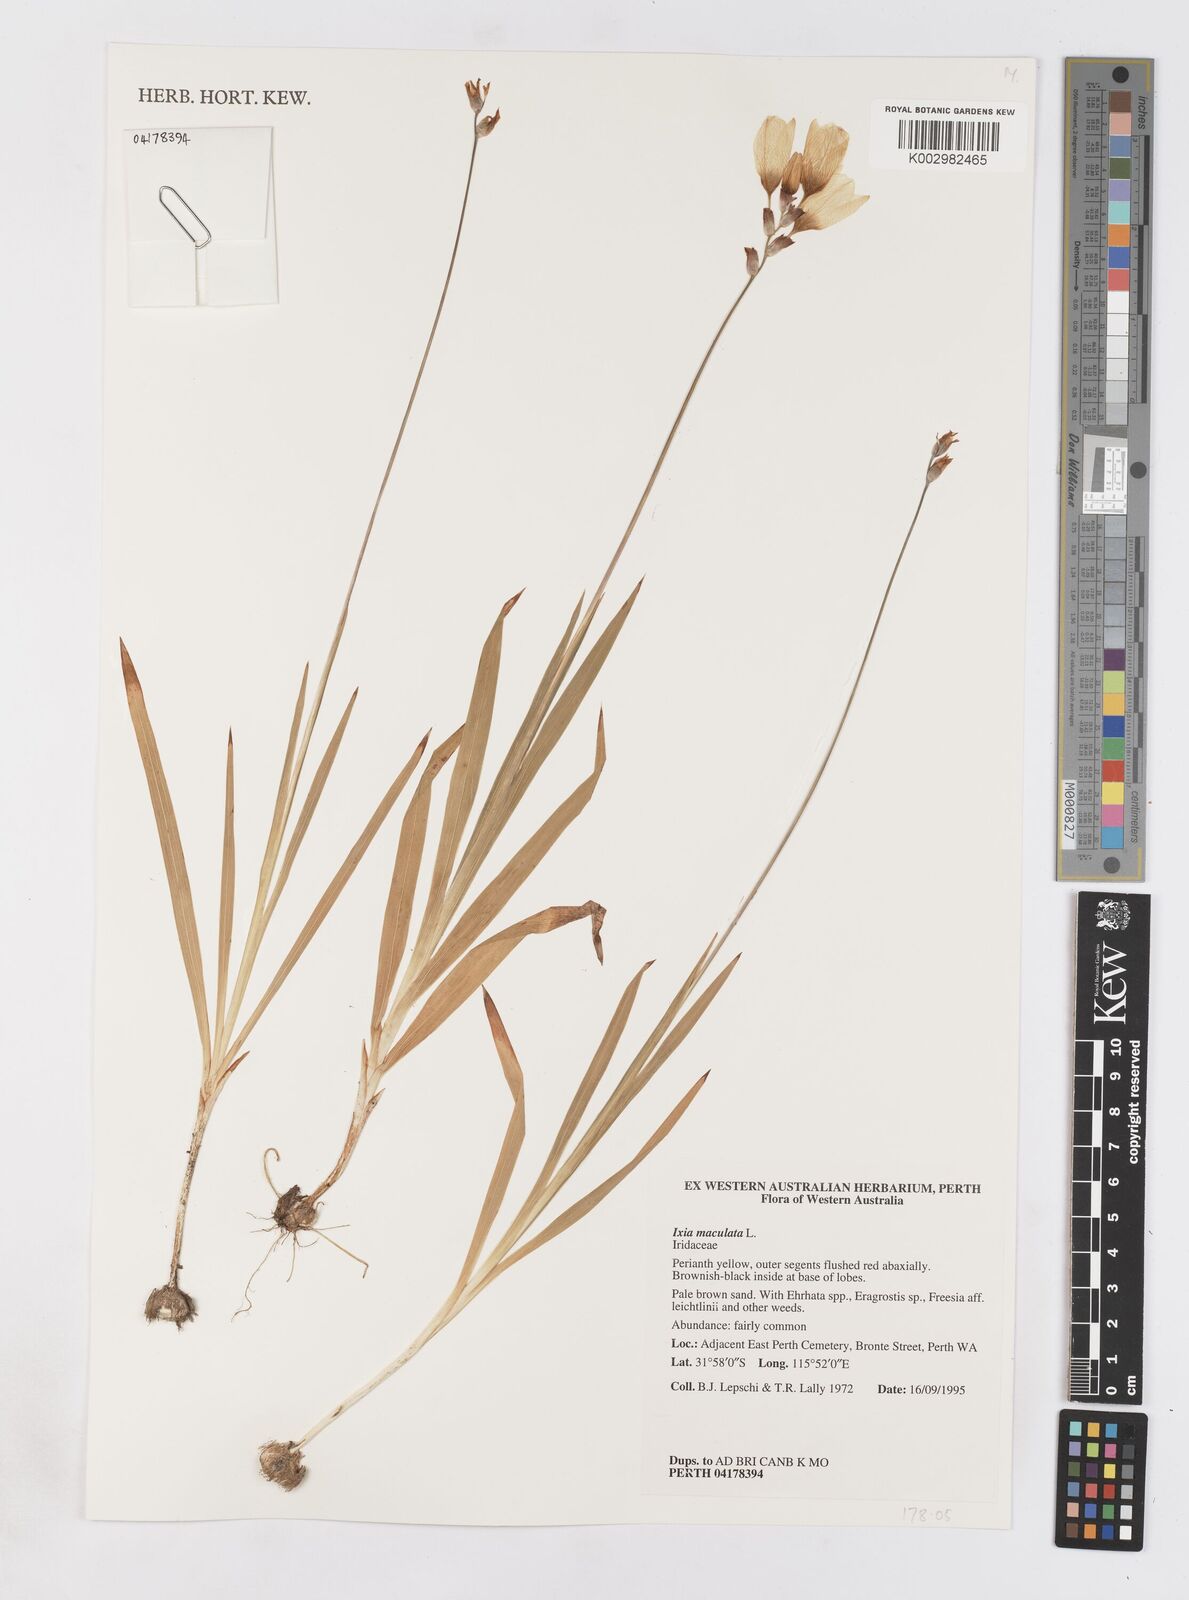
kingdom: Plantae
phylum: Tracheophyta
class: Liliopsida
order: Asparagales
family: Iridaceae
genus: Ixia
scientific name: Ixia maculata
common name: Spotted african cornlily
